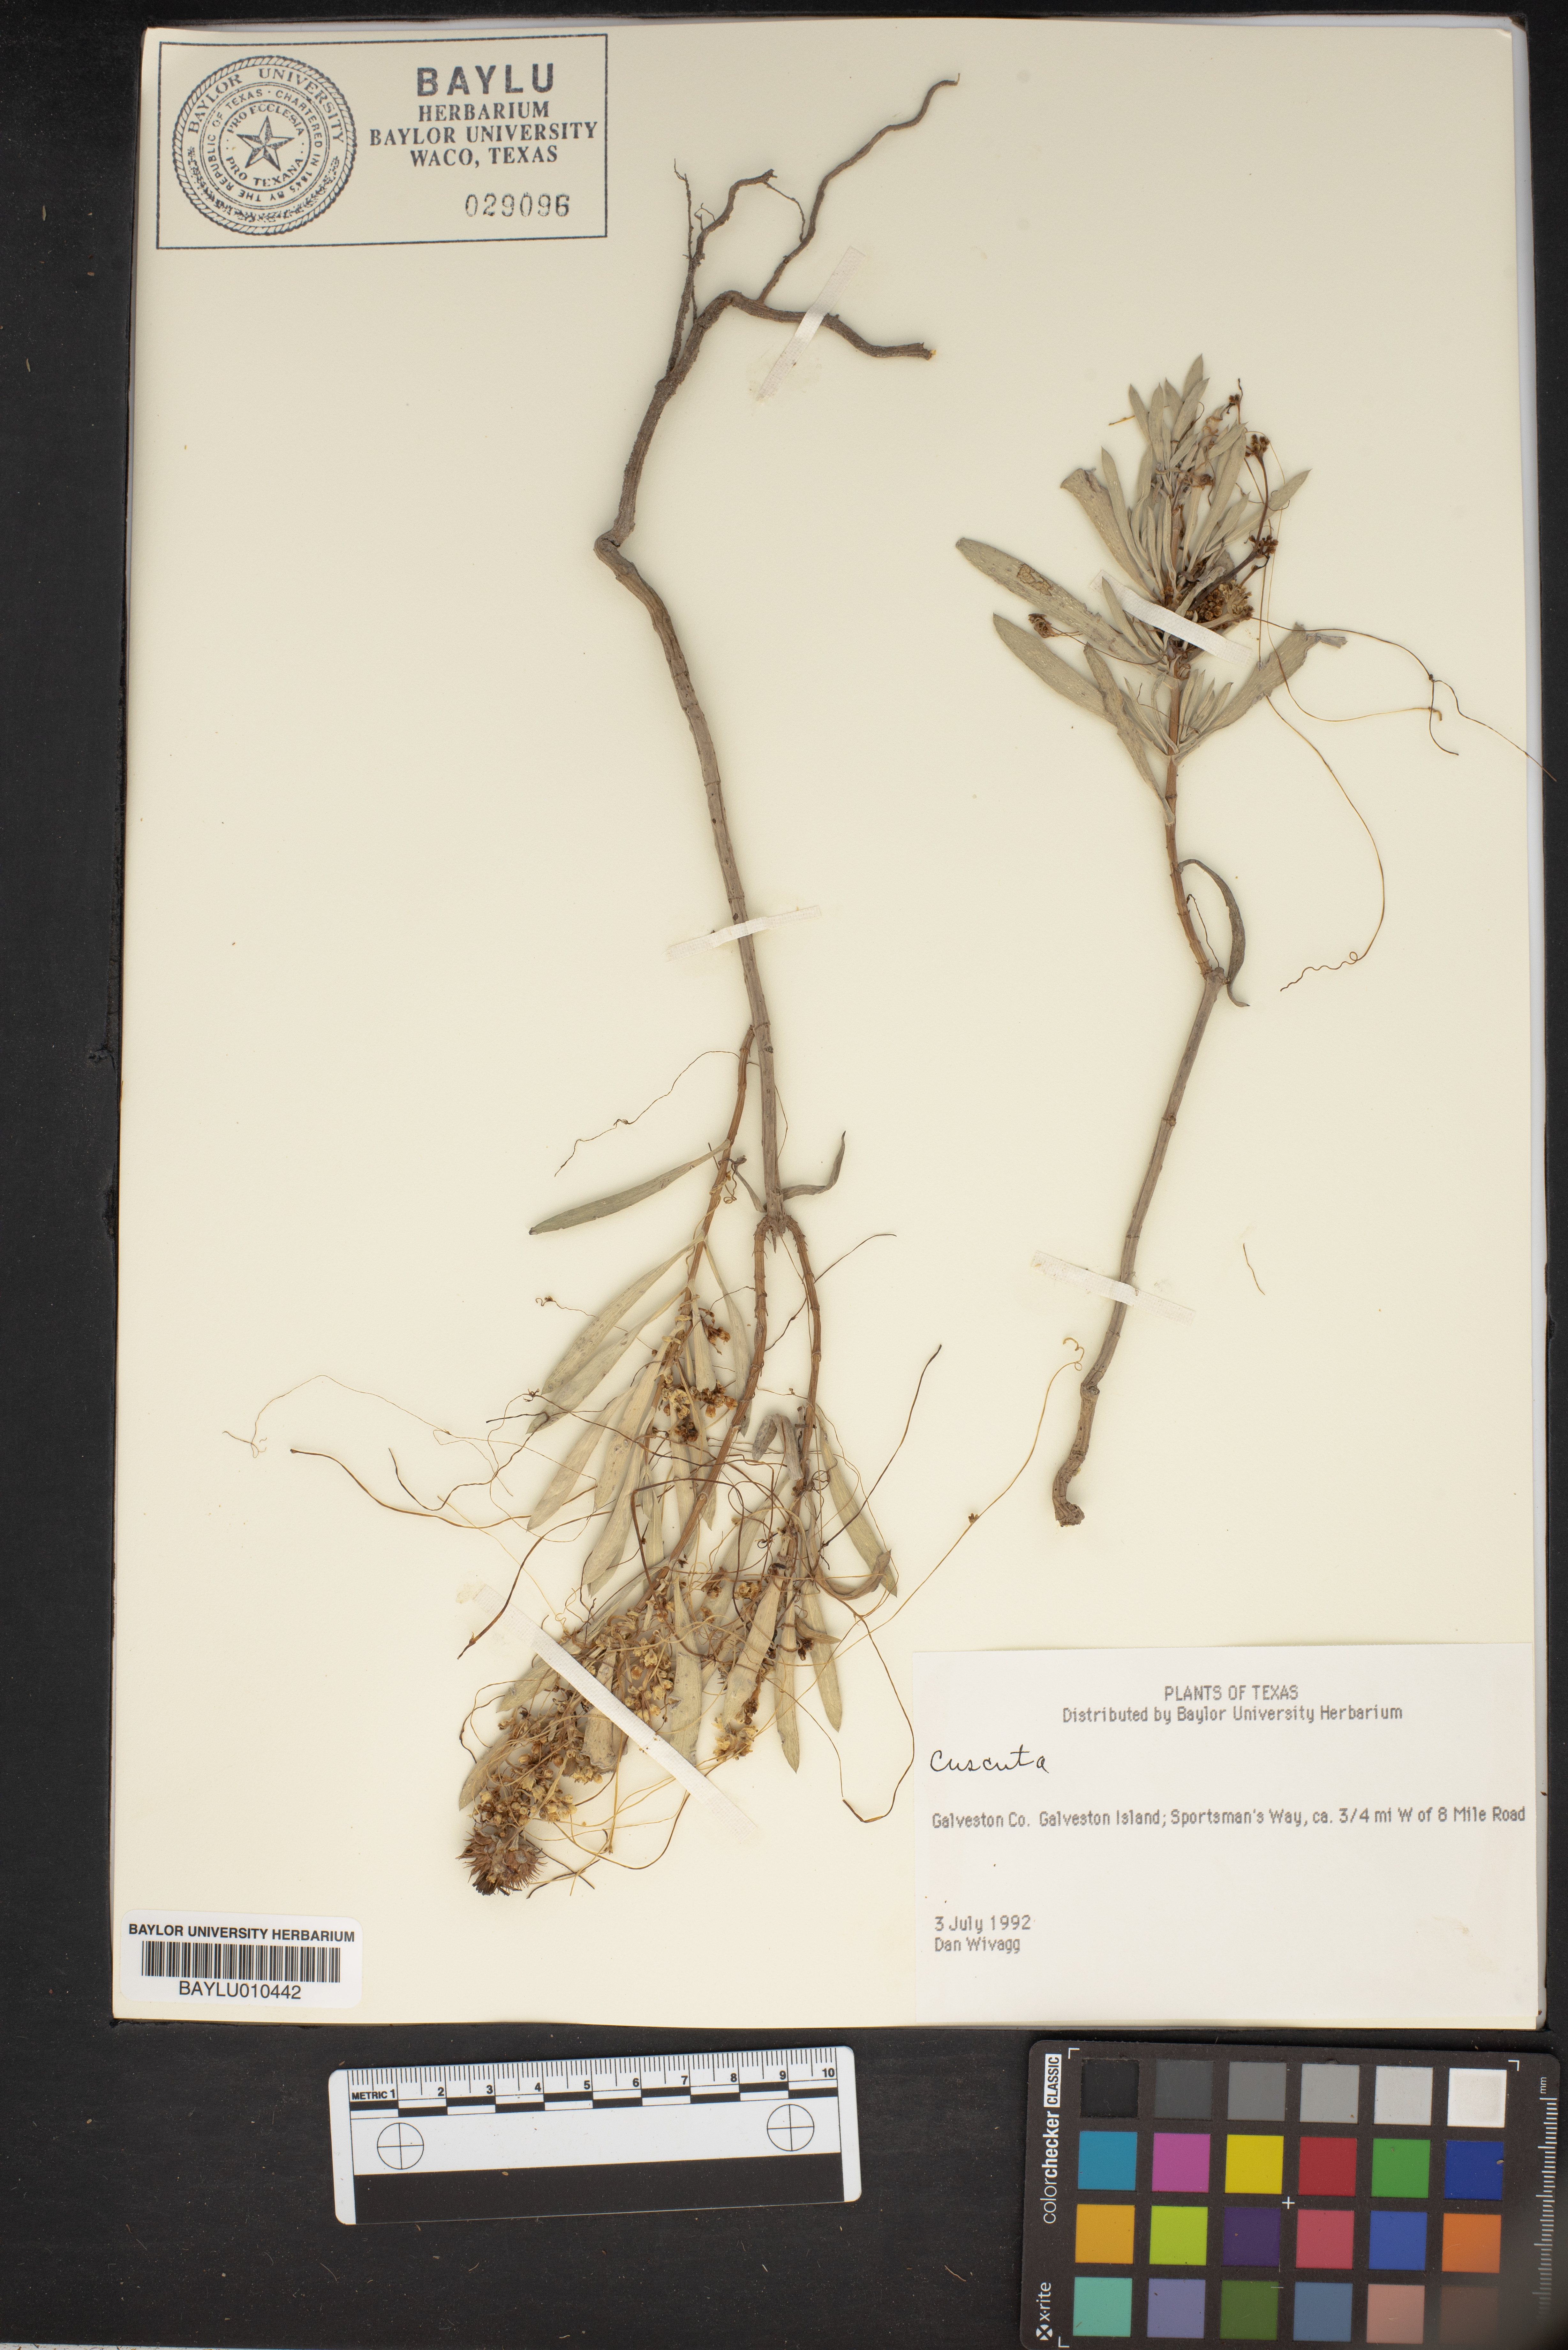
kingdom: Plantae
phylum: Tracheophyta
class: Magnoliopsida
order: Solanales
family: Convolvulaceae
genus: Cuscuta
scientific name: Cuscuta
